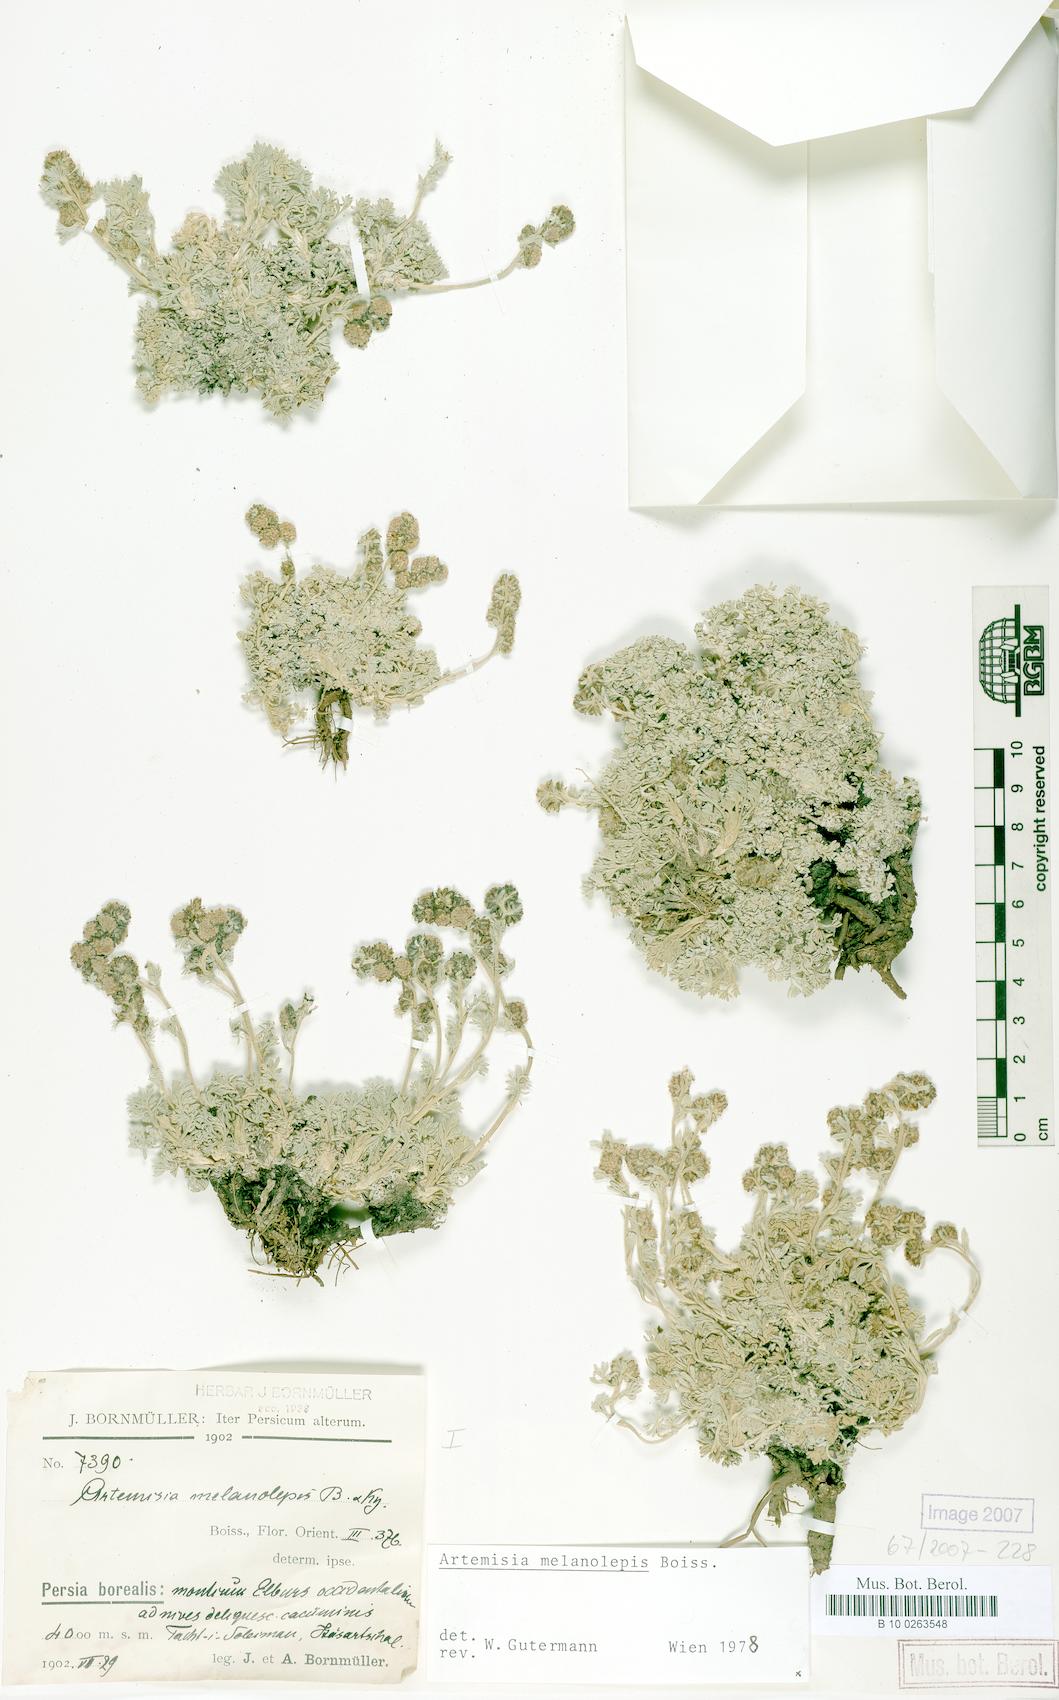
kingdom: Plantae
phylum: Tracheophyta
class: Magnoliopsida
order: Asterales
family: Asteraceae
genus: Artemisia
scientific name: Artemisia melanolepis
